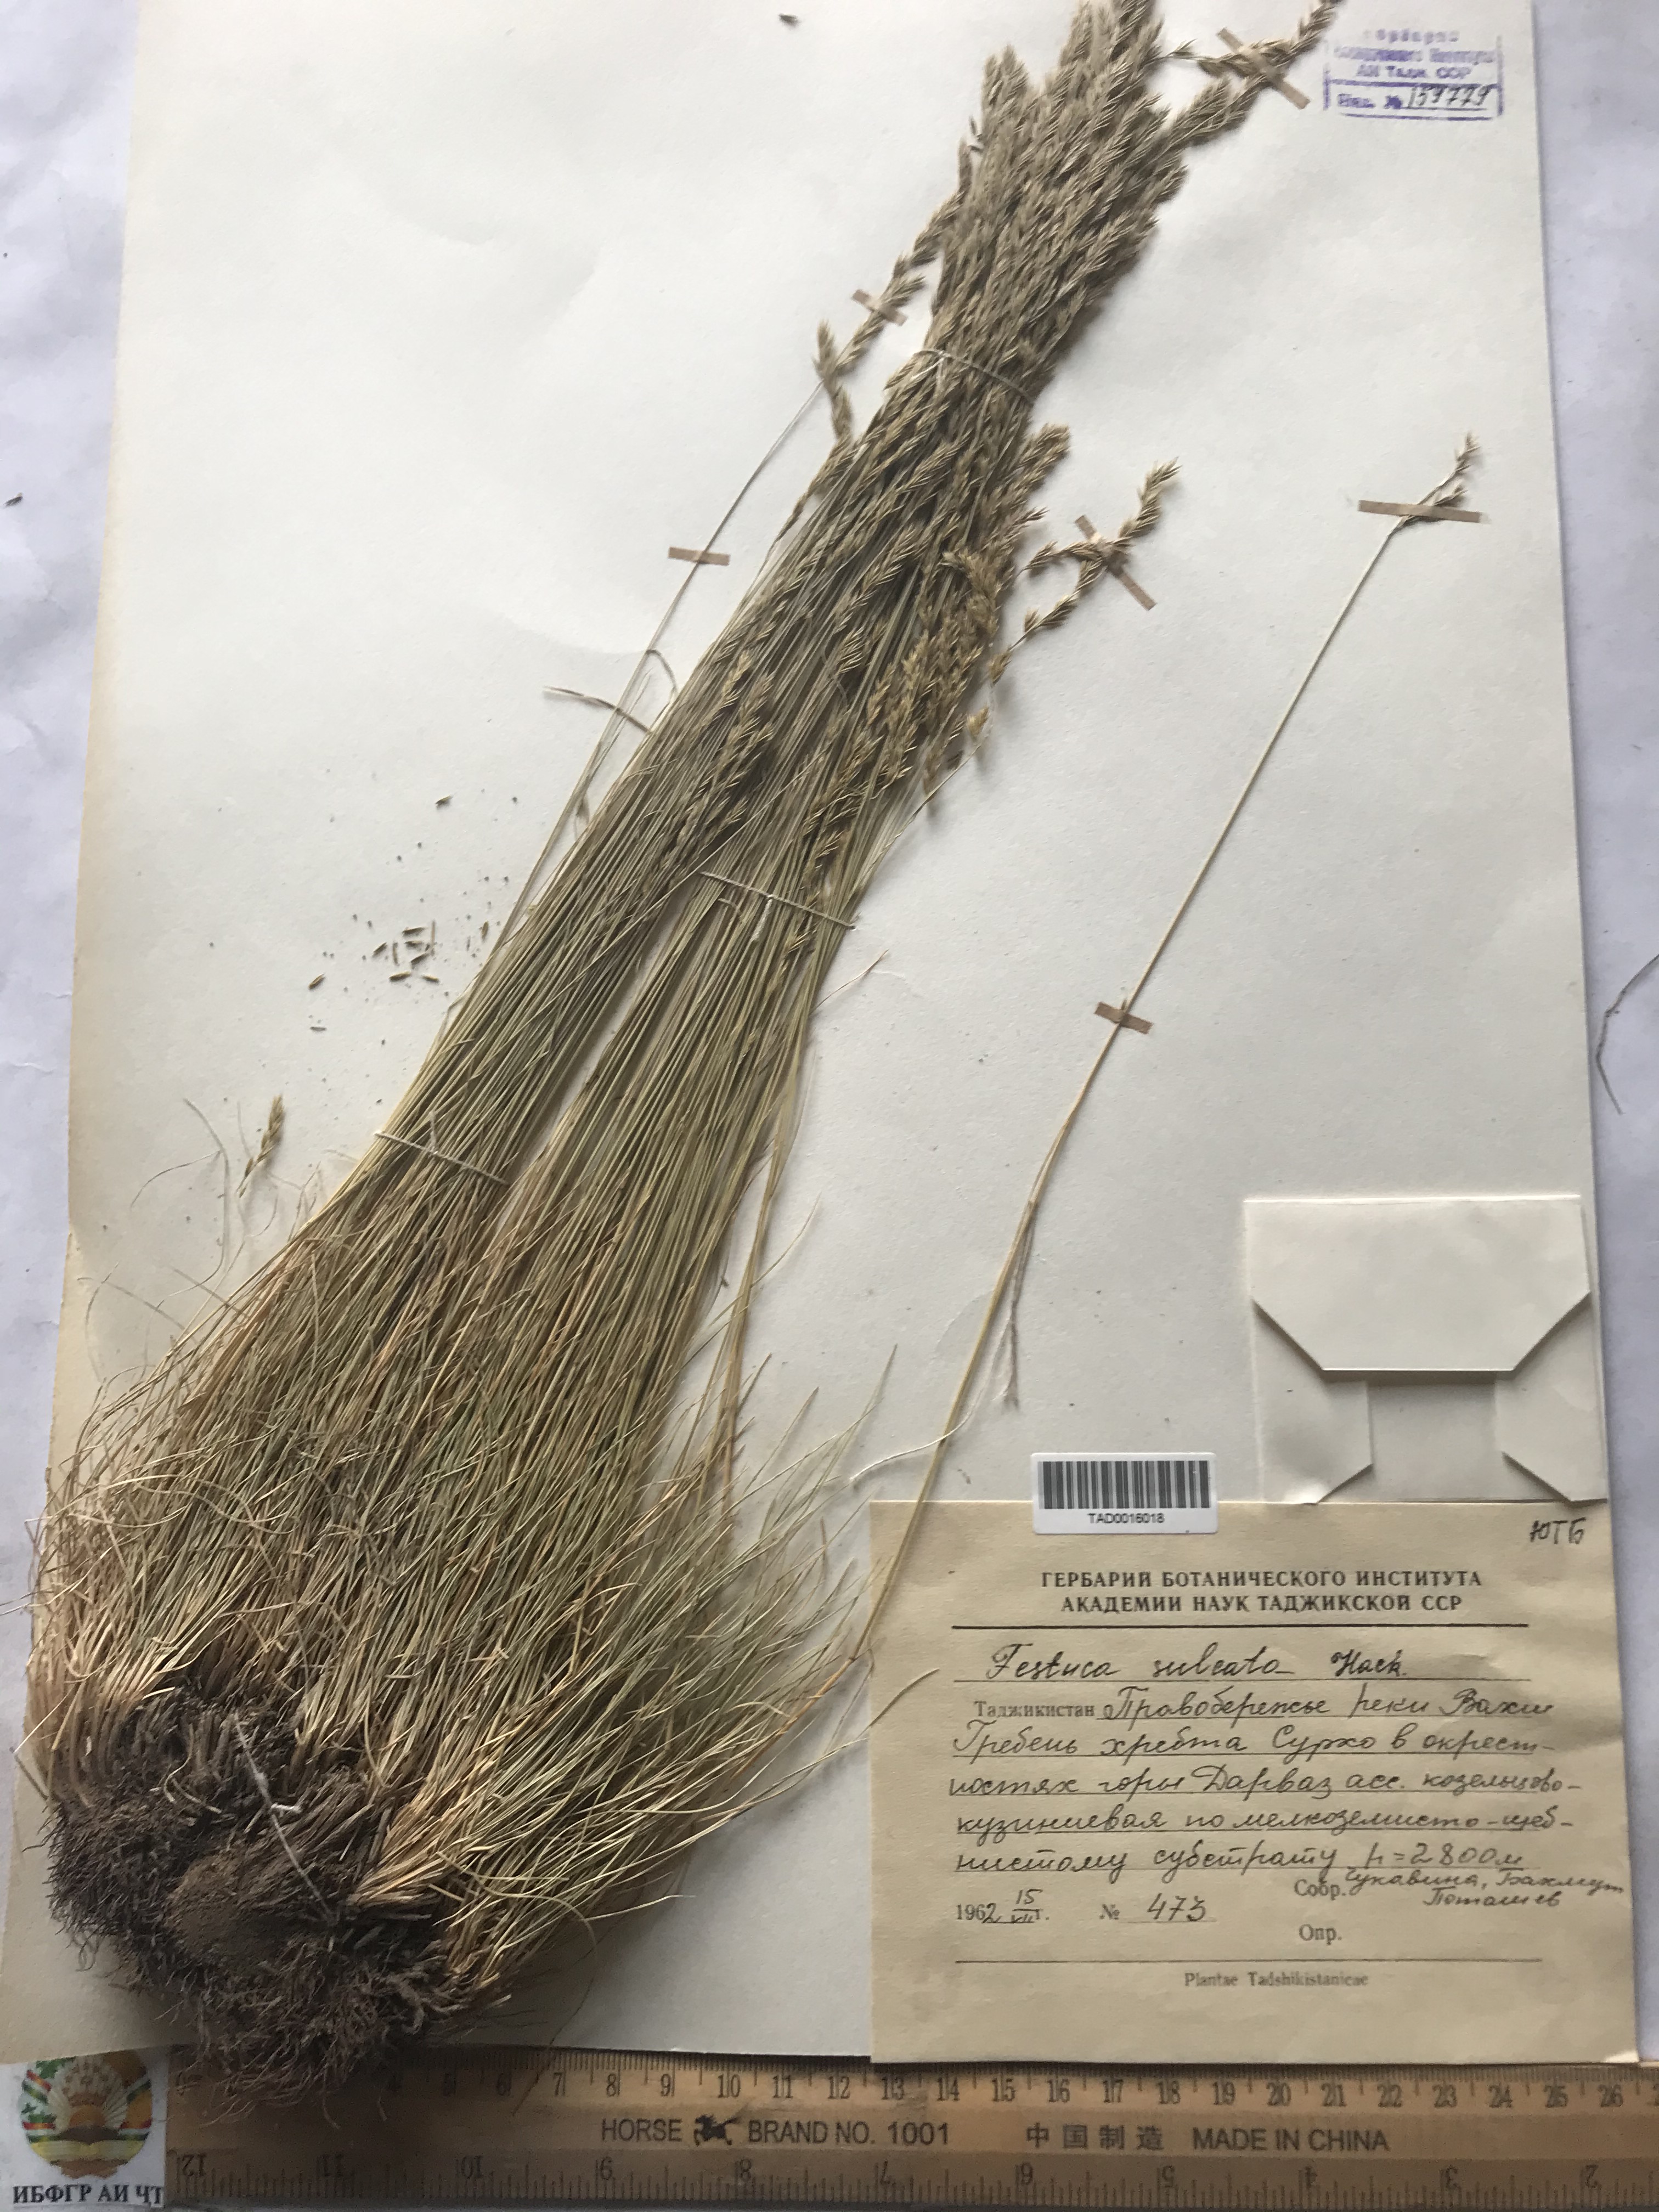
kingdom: Plantae
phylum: Tracheophyta
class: Liliopsida
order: Poales
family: Poaceae
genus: Festuca
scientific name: Festuca sulcata
